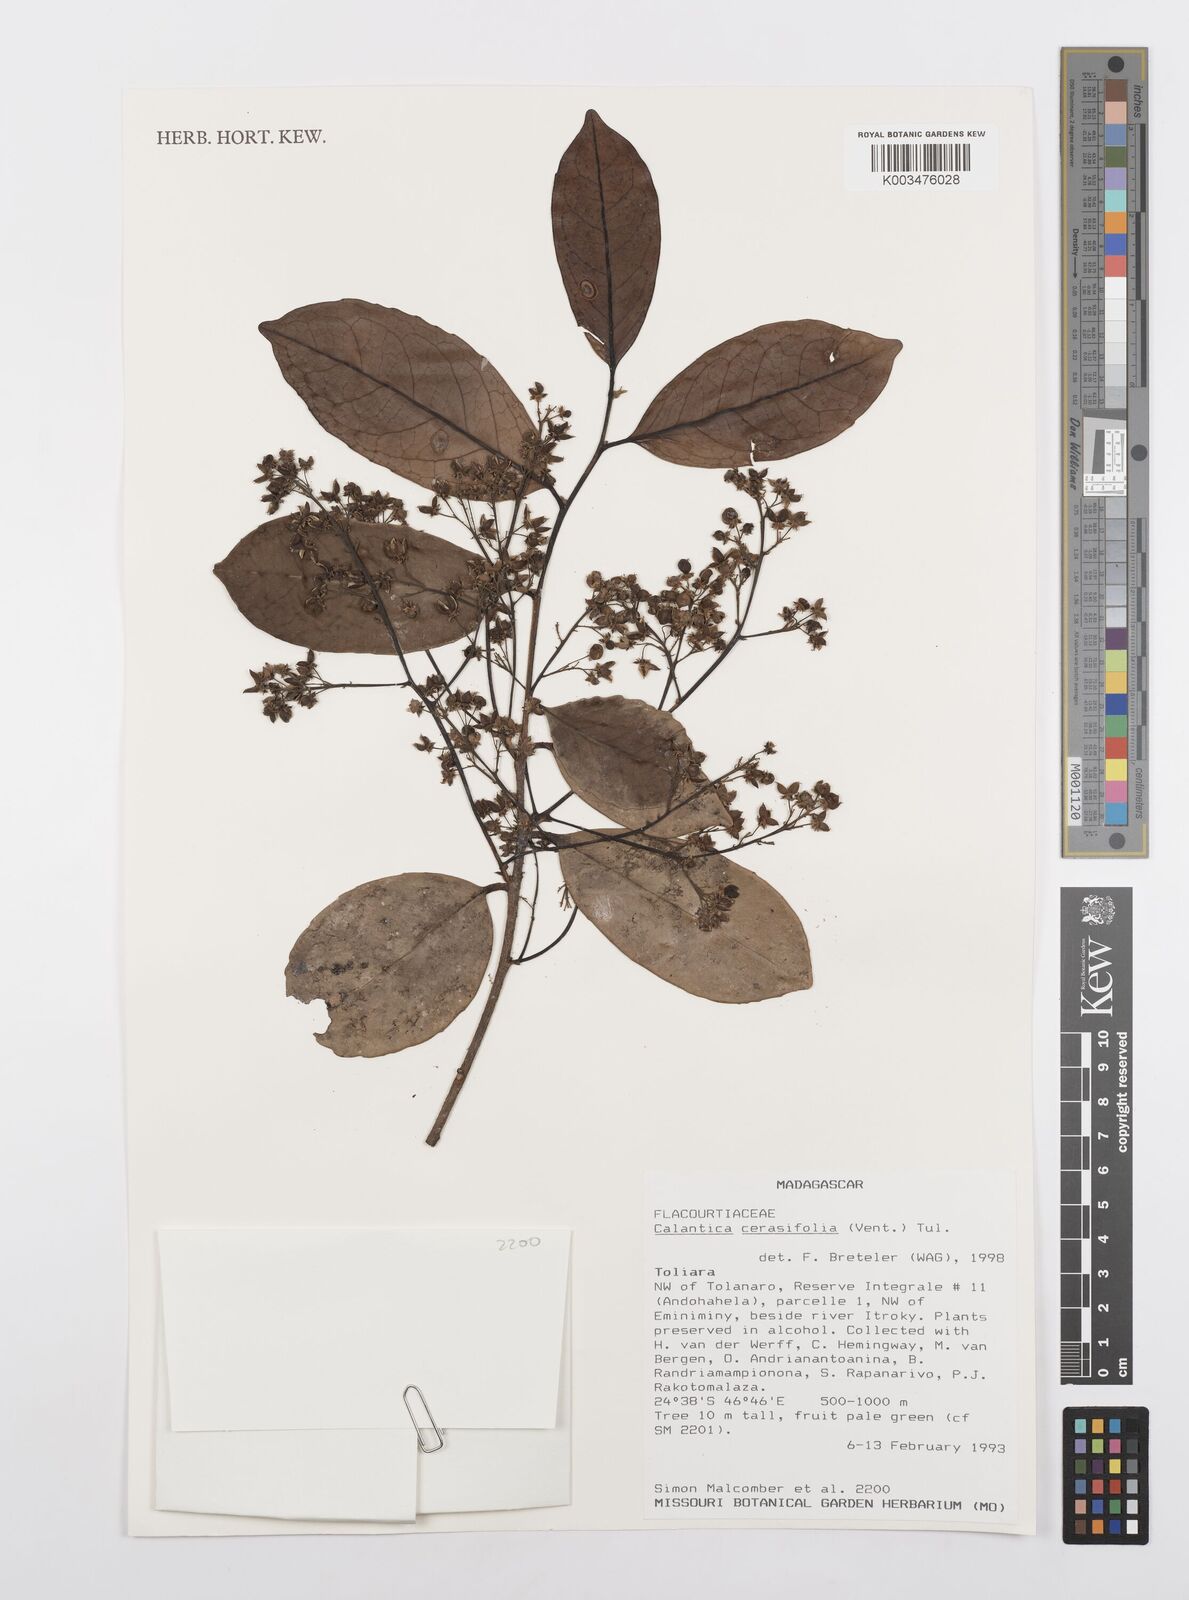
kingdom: Plantae
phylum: Tracheophyta
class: Magnoliopsida
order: Malpighiales
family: Salicaceae
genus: Calantica
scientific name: Calantica cerasifolia
